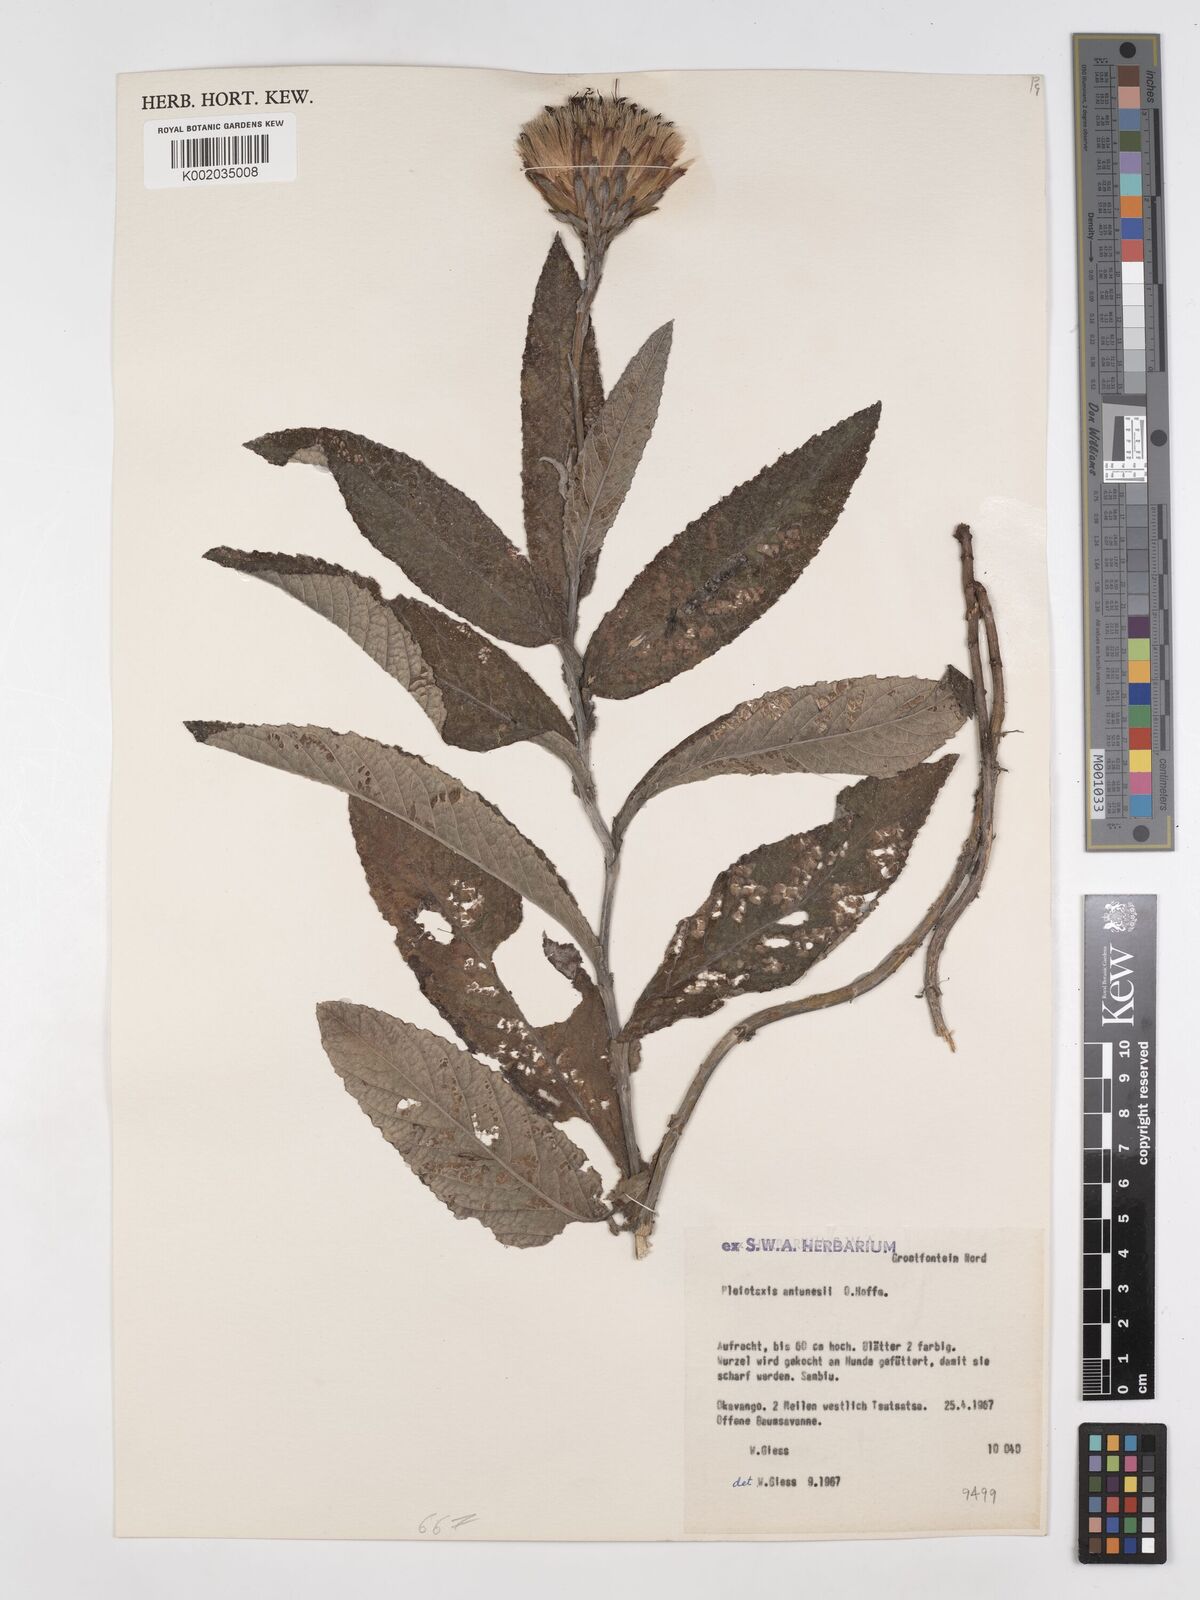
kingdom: Plantae
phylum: Tracheophyta
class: Magnoliopsida
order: Asterales
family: Asteraceae
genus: Pleiotaxis
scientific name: Pleiotaxis antunesii
